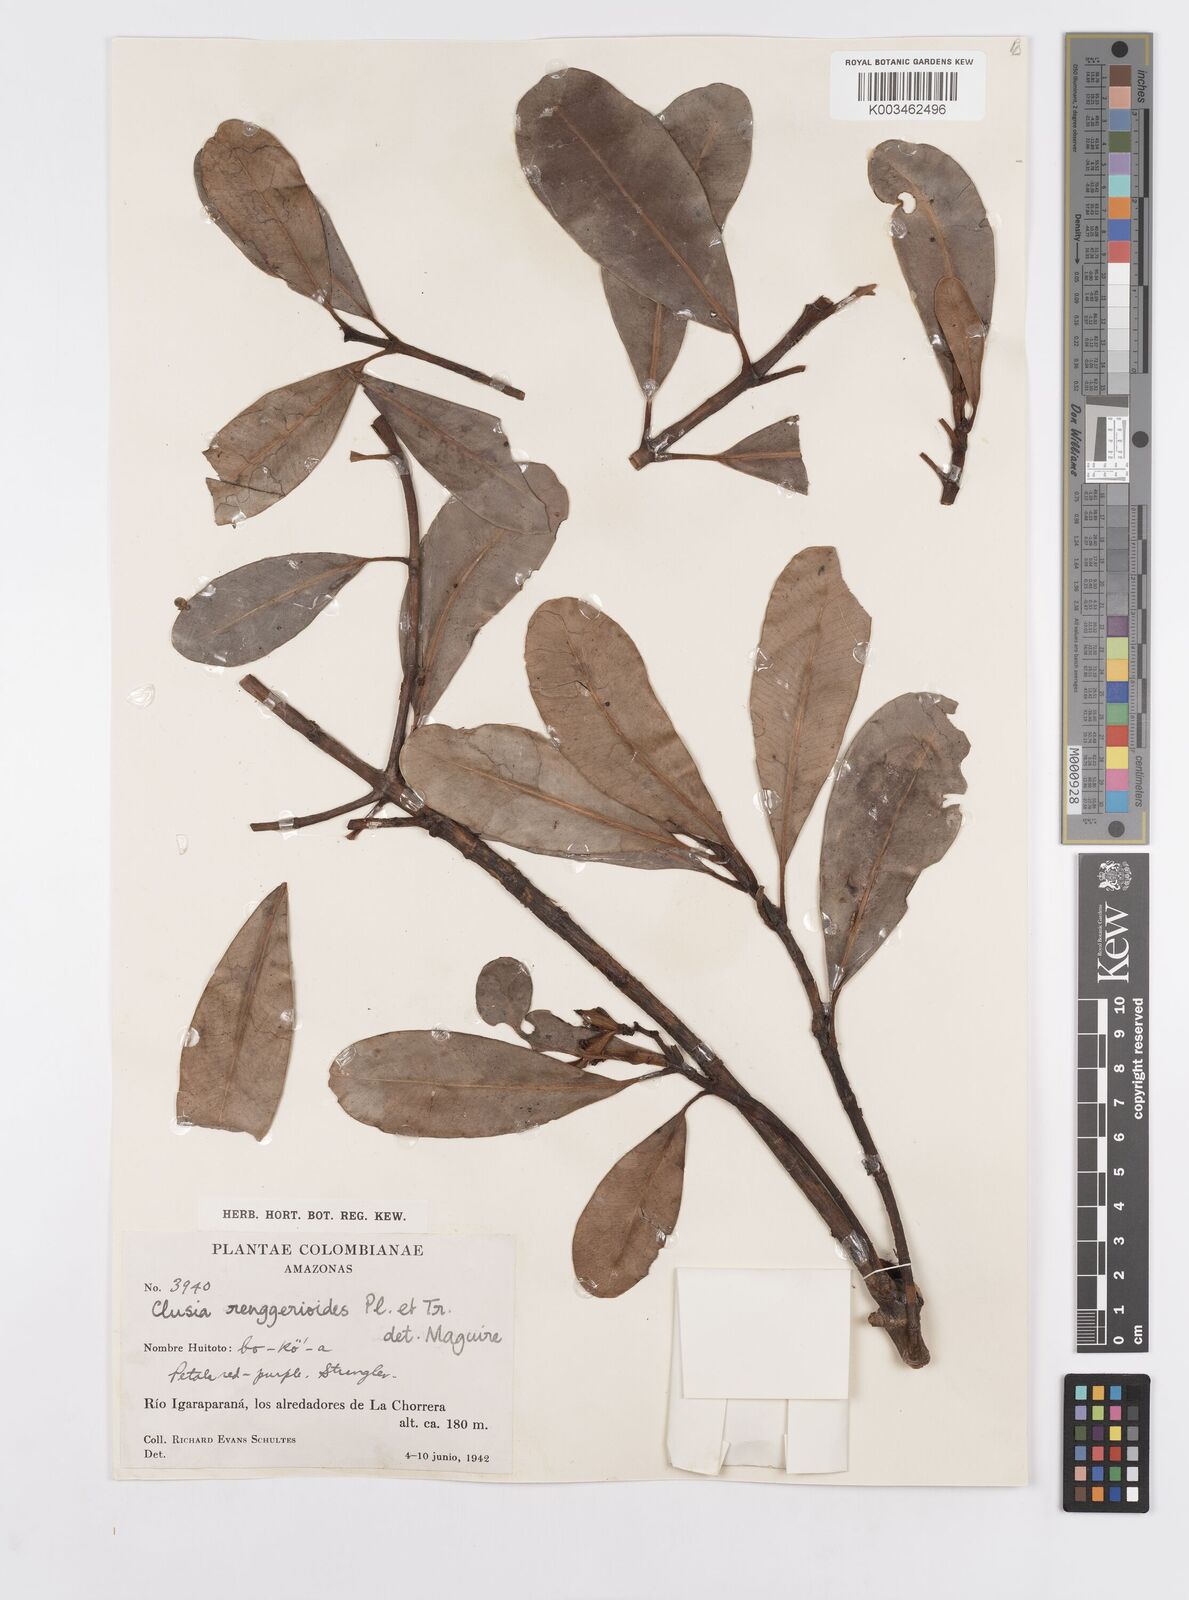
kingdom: Plantae
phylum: Tracheophyta
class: Magnoliopsida
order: Malpighiales
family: Clusiaceae
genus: Clusia
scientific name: Clusia renggerioides
